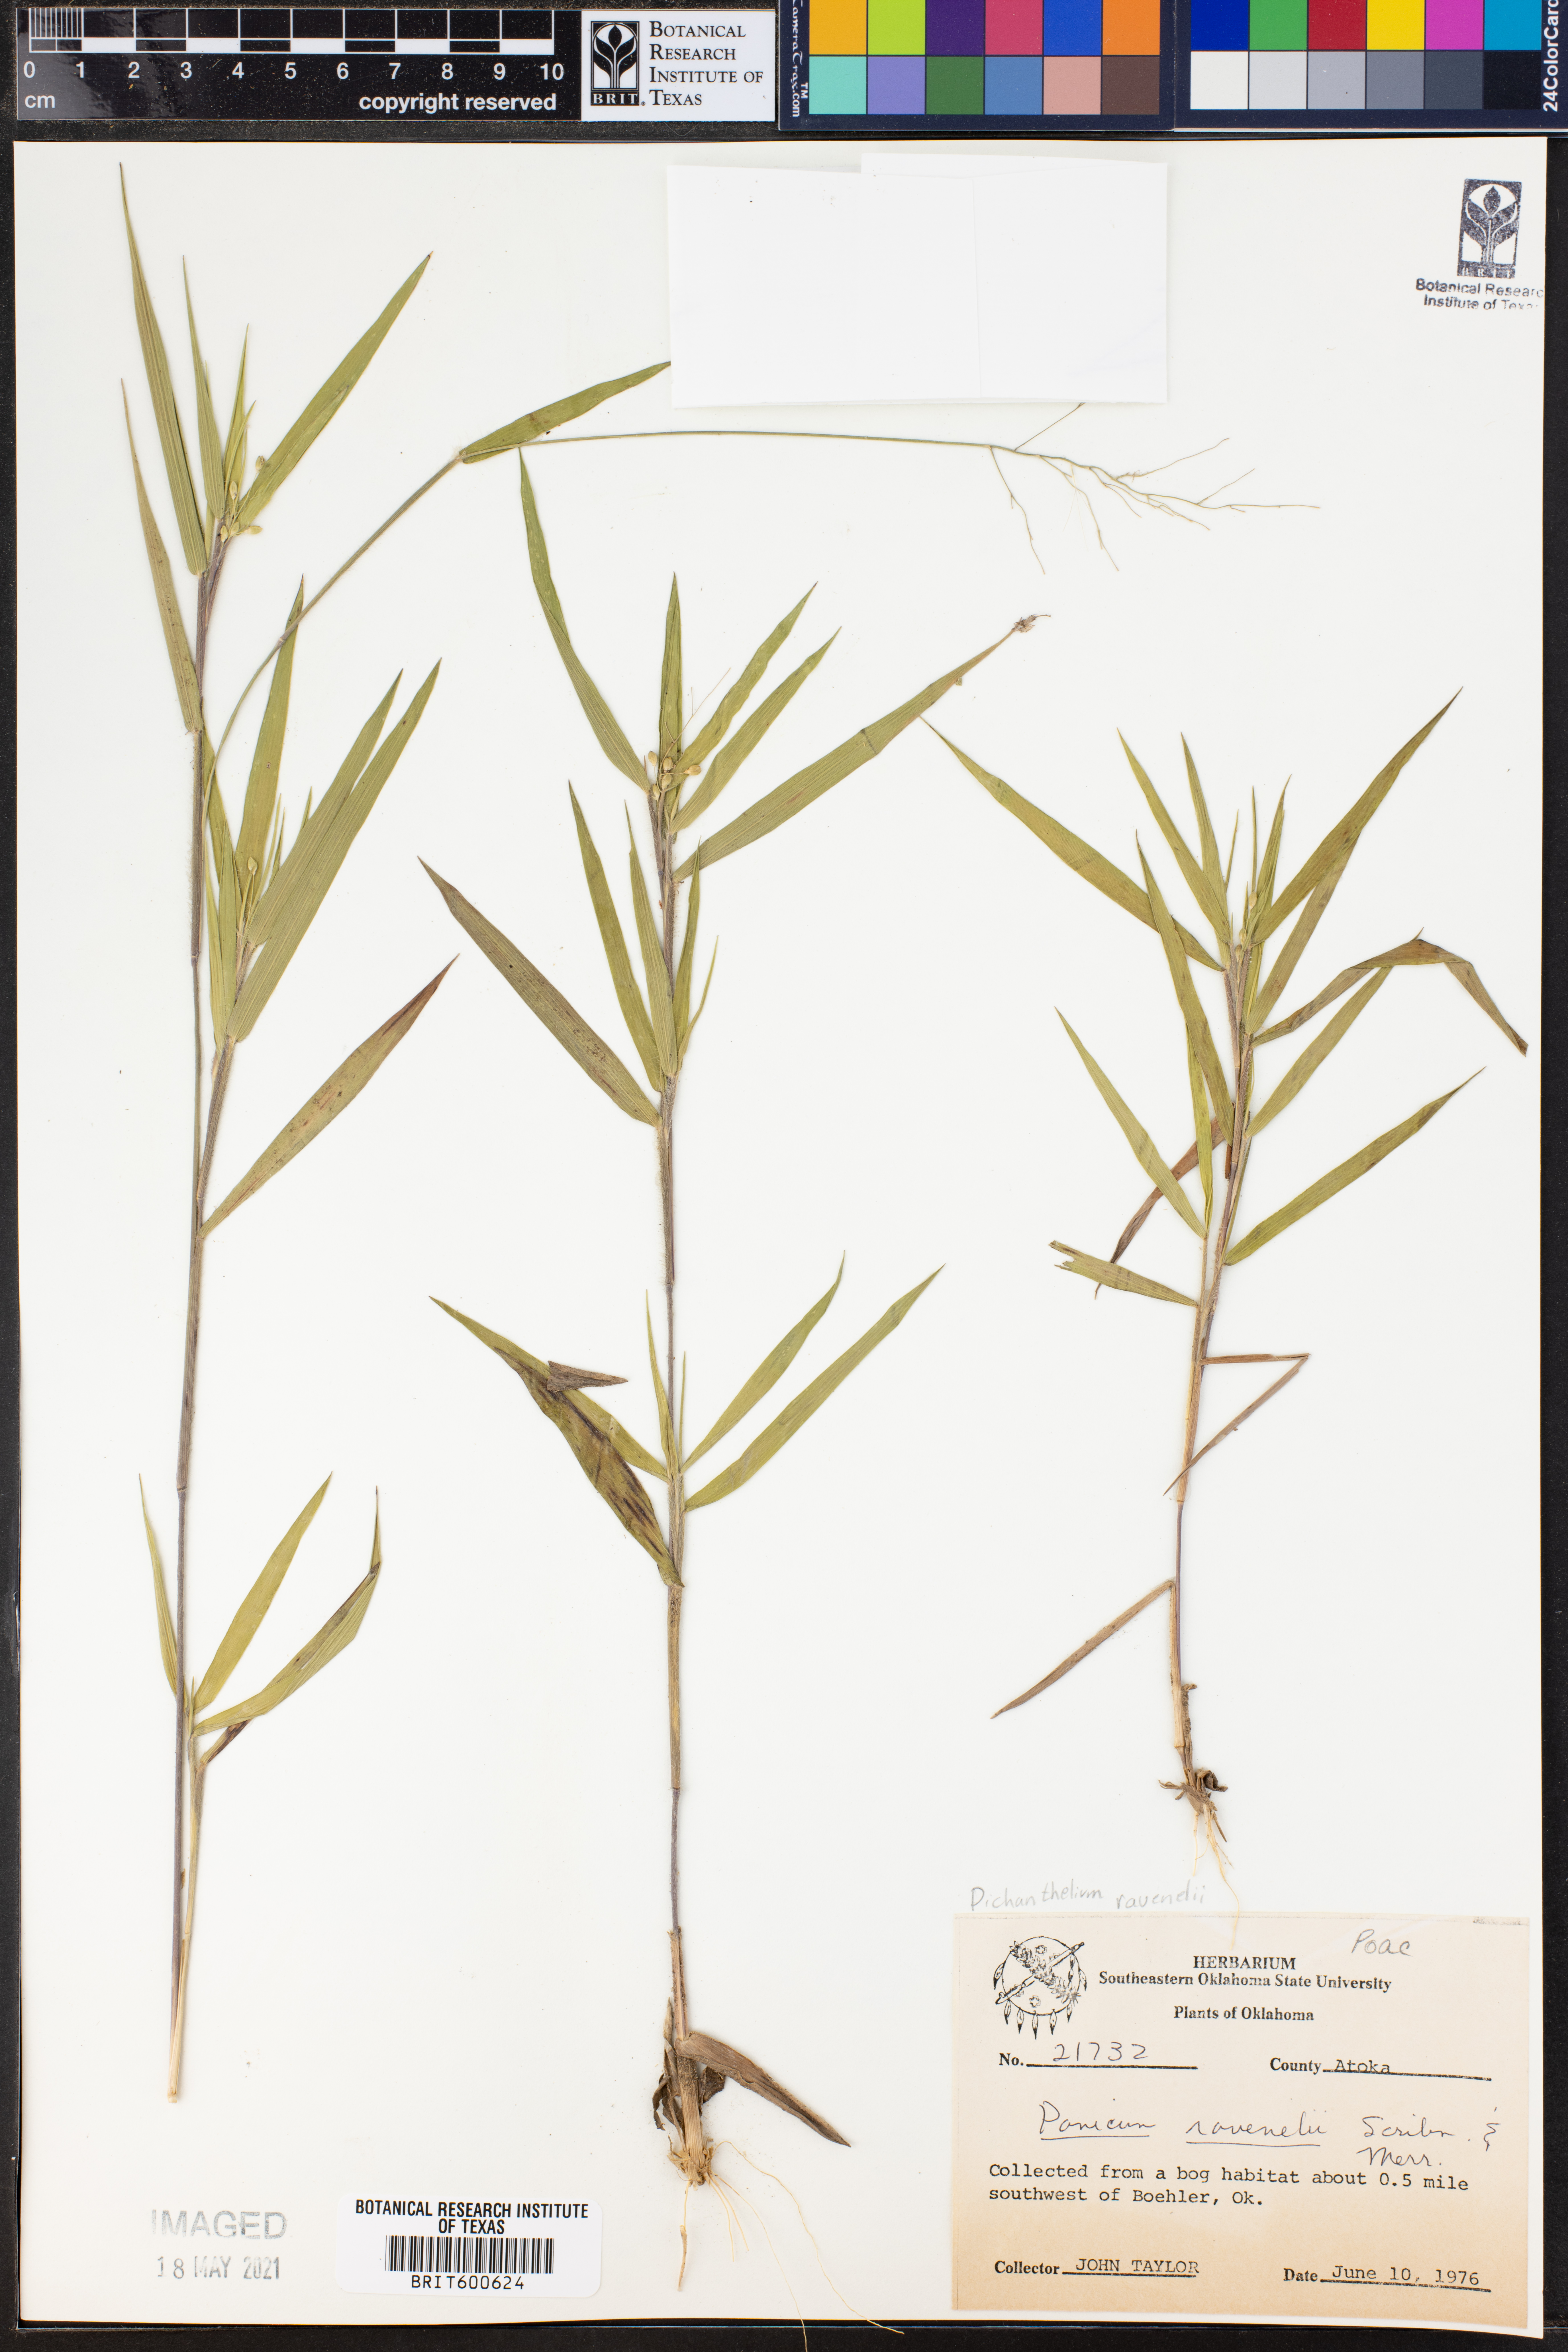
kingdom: Plantae
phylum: Tracheophyta
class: Liliopsida
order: Poales
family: Poaceae
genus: Dichanthelium
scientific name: Dichanthelium ravenelii
